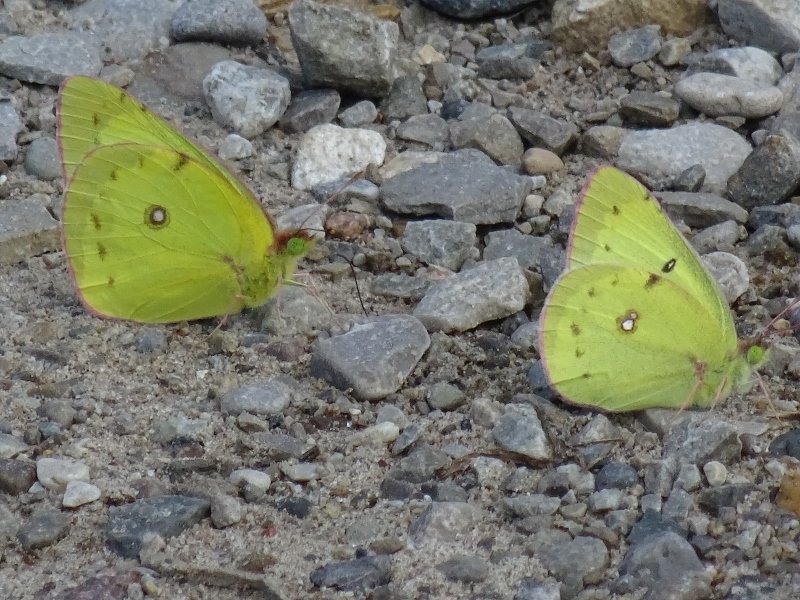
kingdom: Animalia
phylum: Arthropoda
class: Insecta
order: Lepidoptera
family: Pieridae
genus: Colias
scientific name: Colias philodice
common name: Clouded Sulphur
